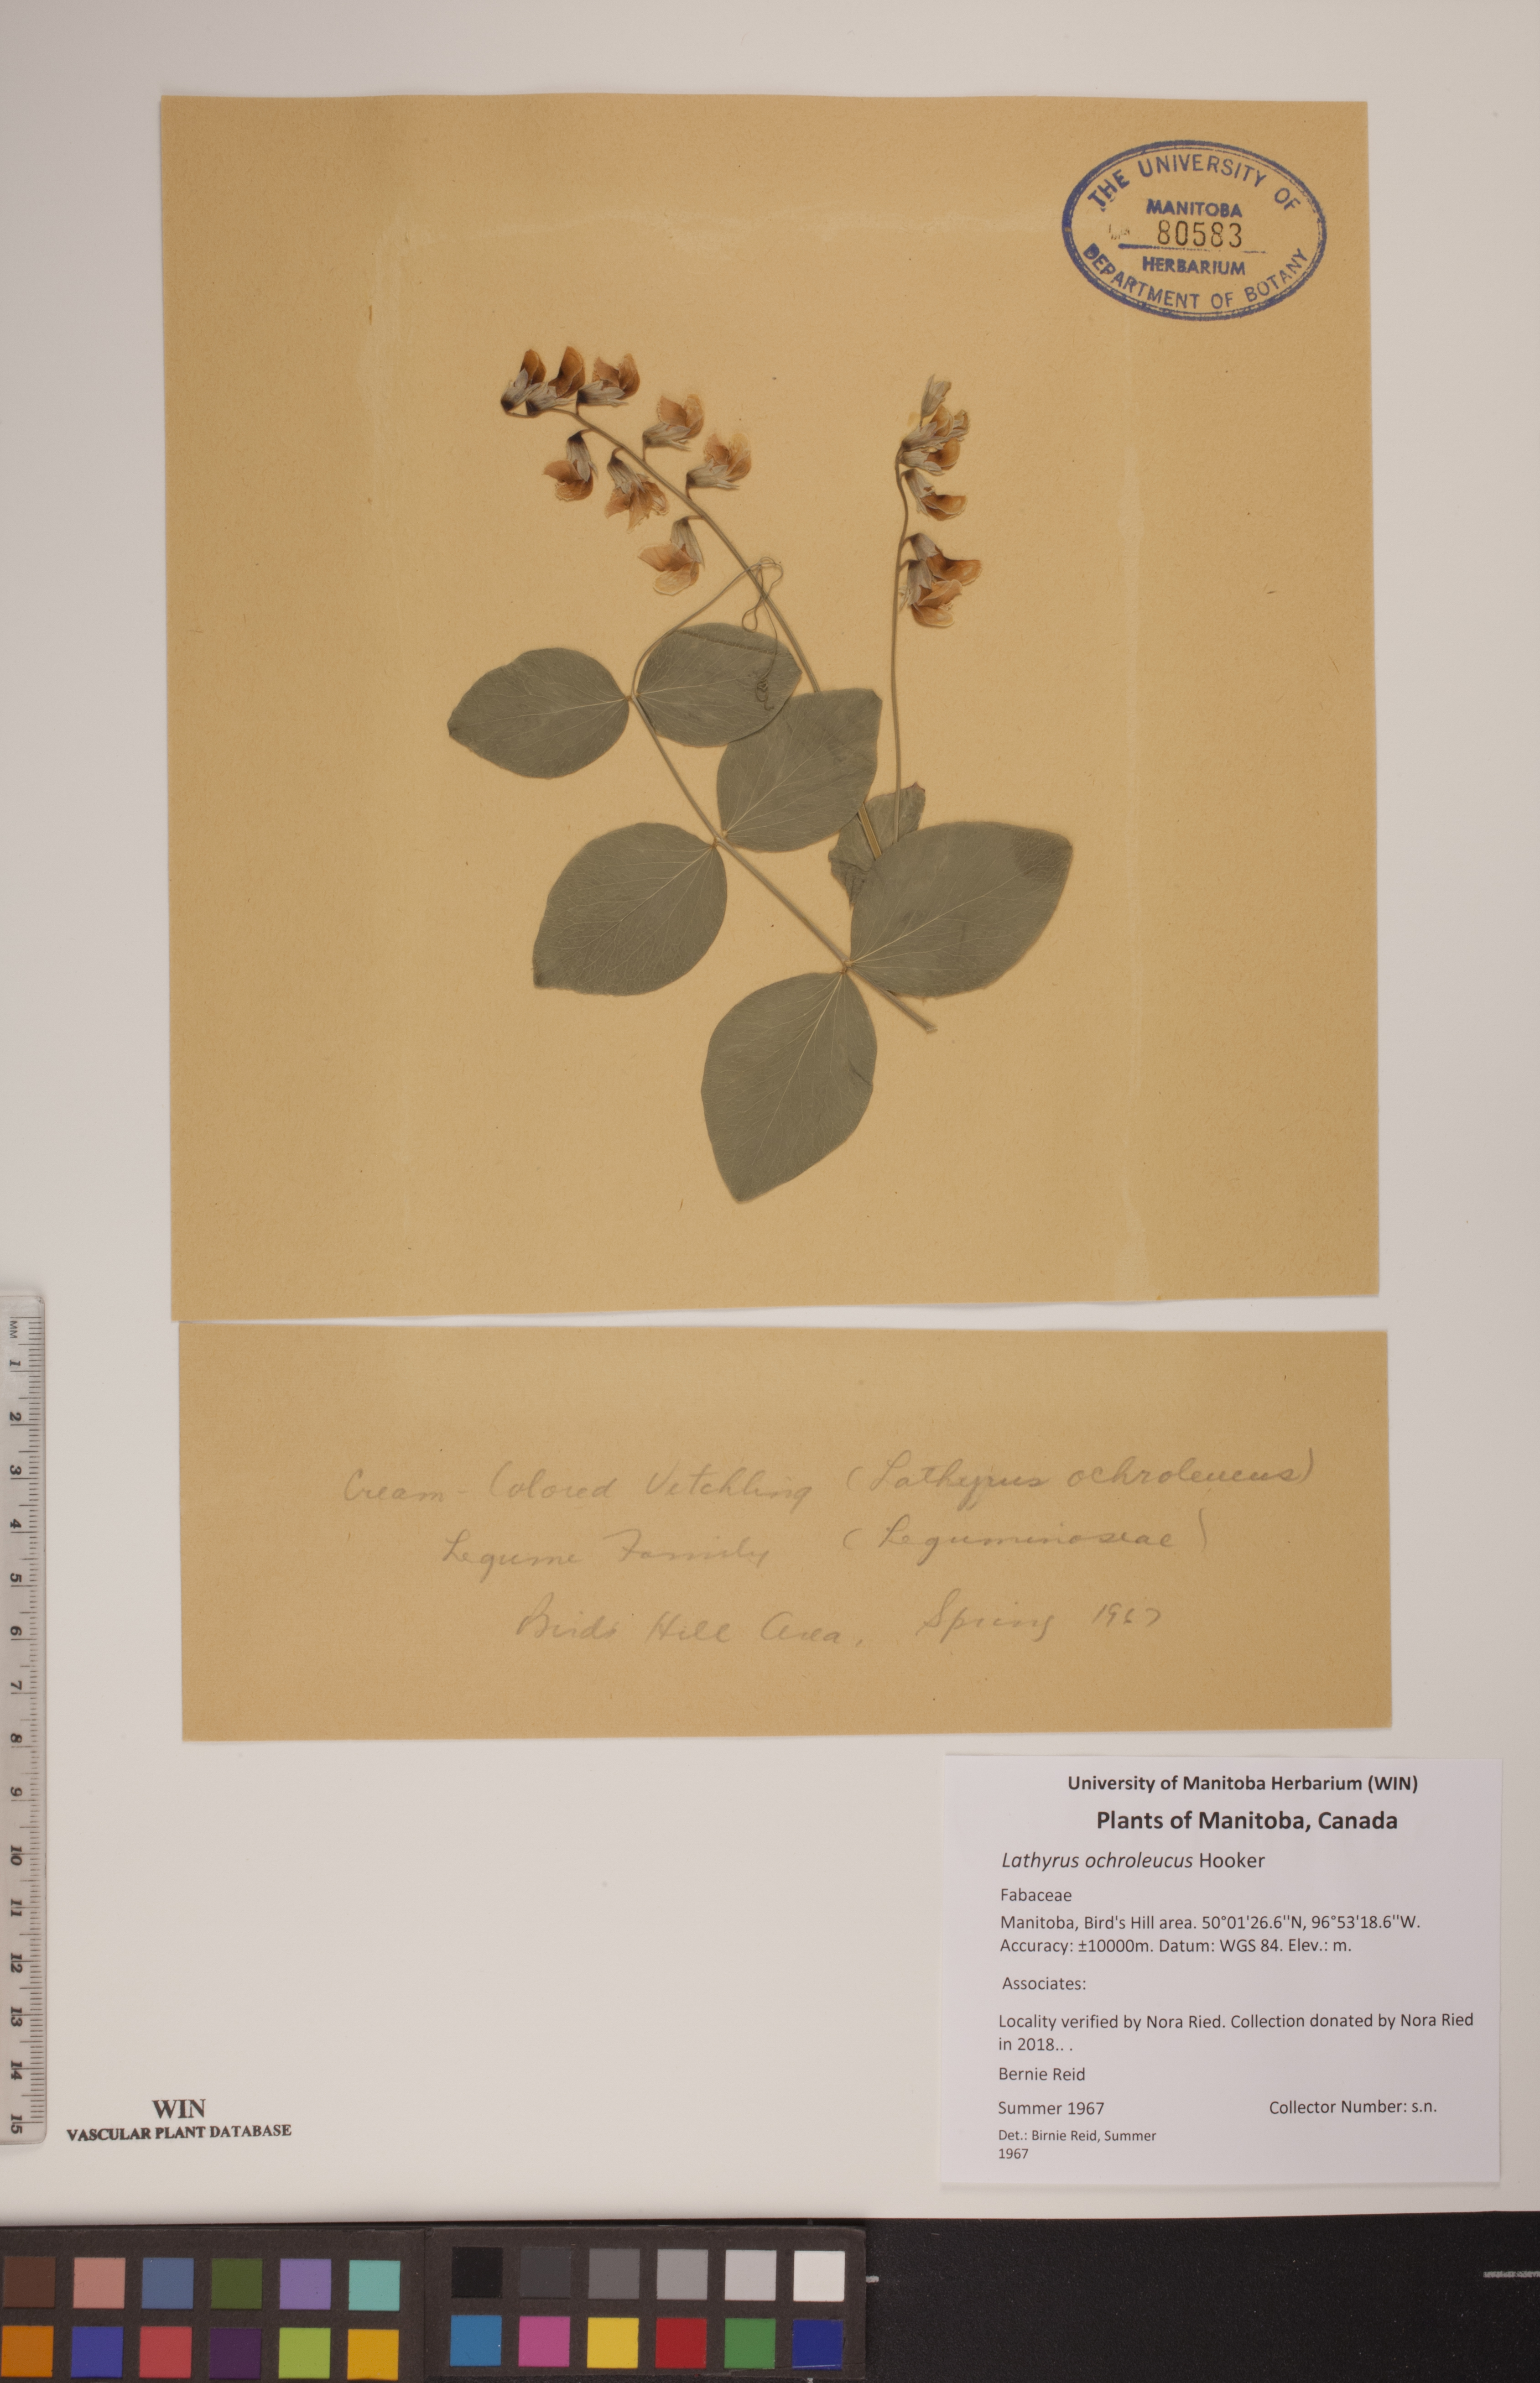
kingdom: Plantae
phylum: Tracheophyta
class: Magnoliopsida
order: Fabales
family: Fabaceae
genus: Lathyrus
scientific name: Lathyrus ochroleucus
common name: Pale vetchling
